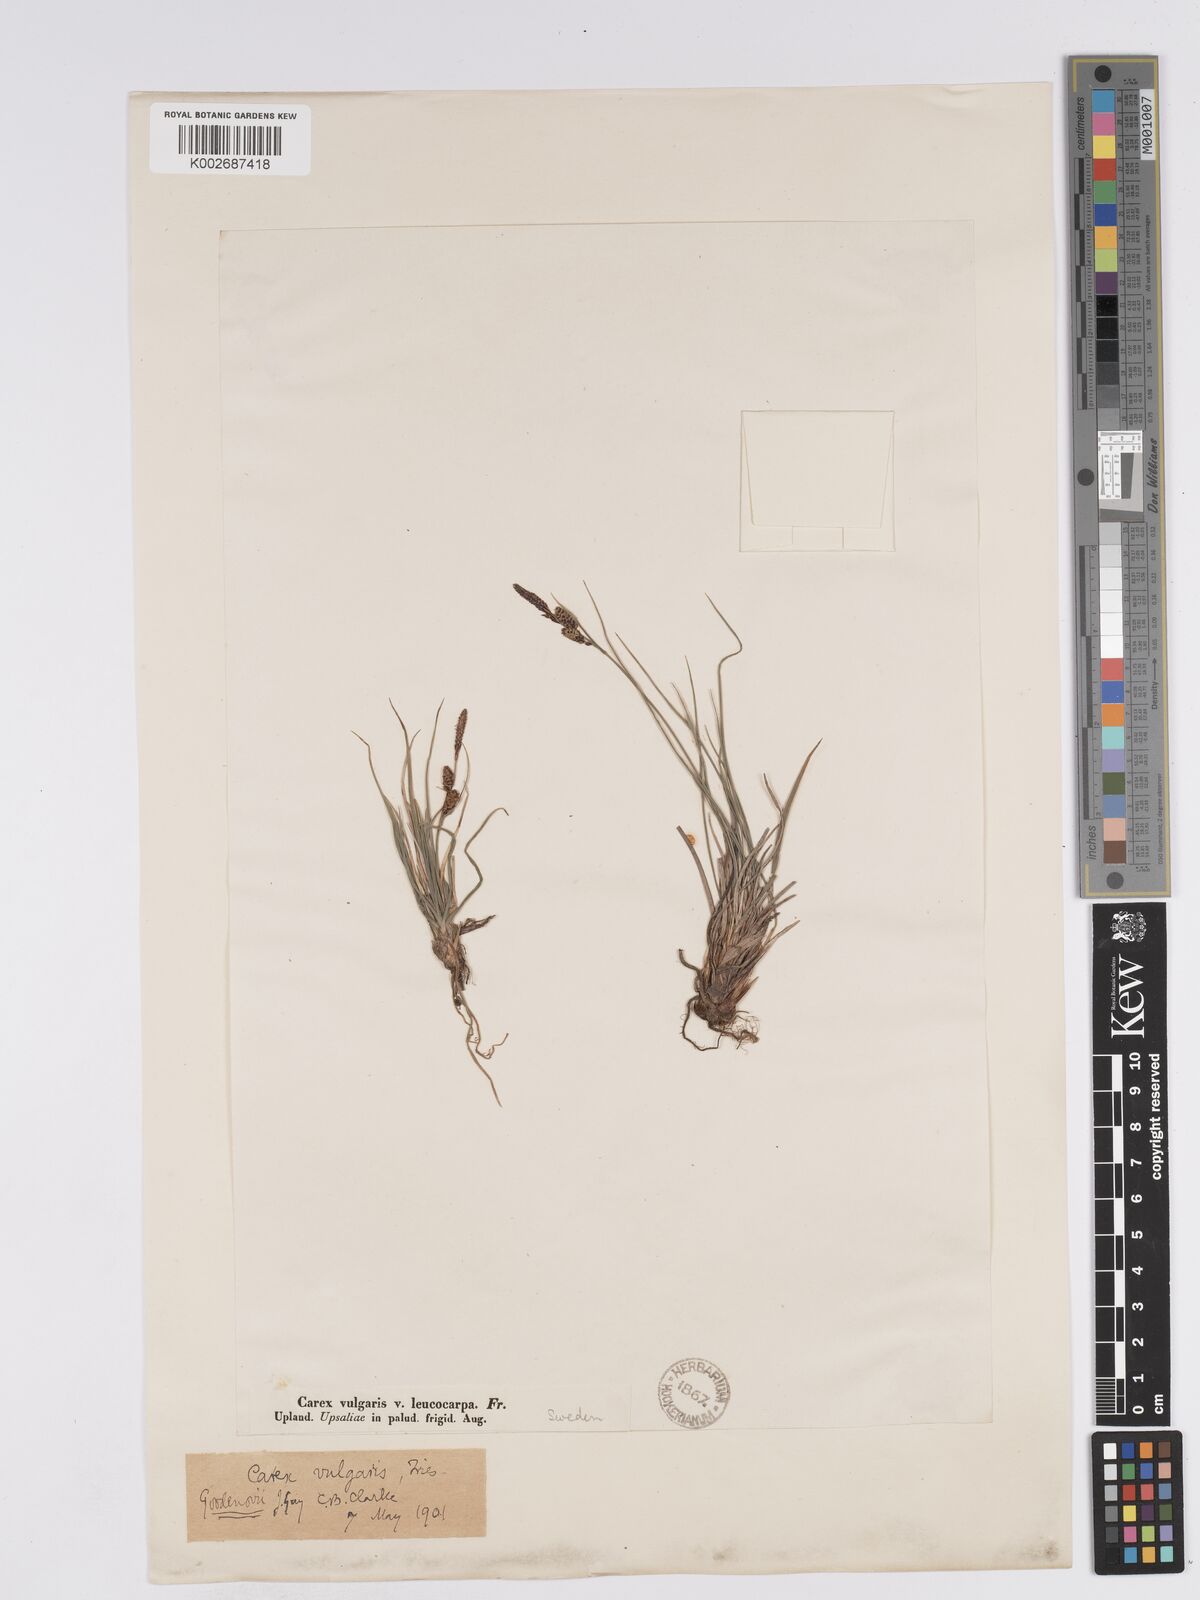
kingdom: Plantae
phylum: Tracheophyta
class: Liliopsida
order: Poales
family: Cyperaceae
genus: Carex
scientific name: Carex nigra
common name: Common sedge
